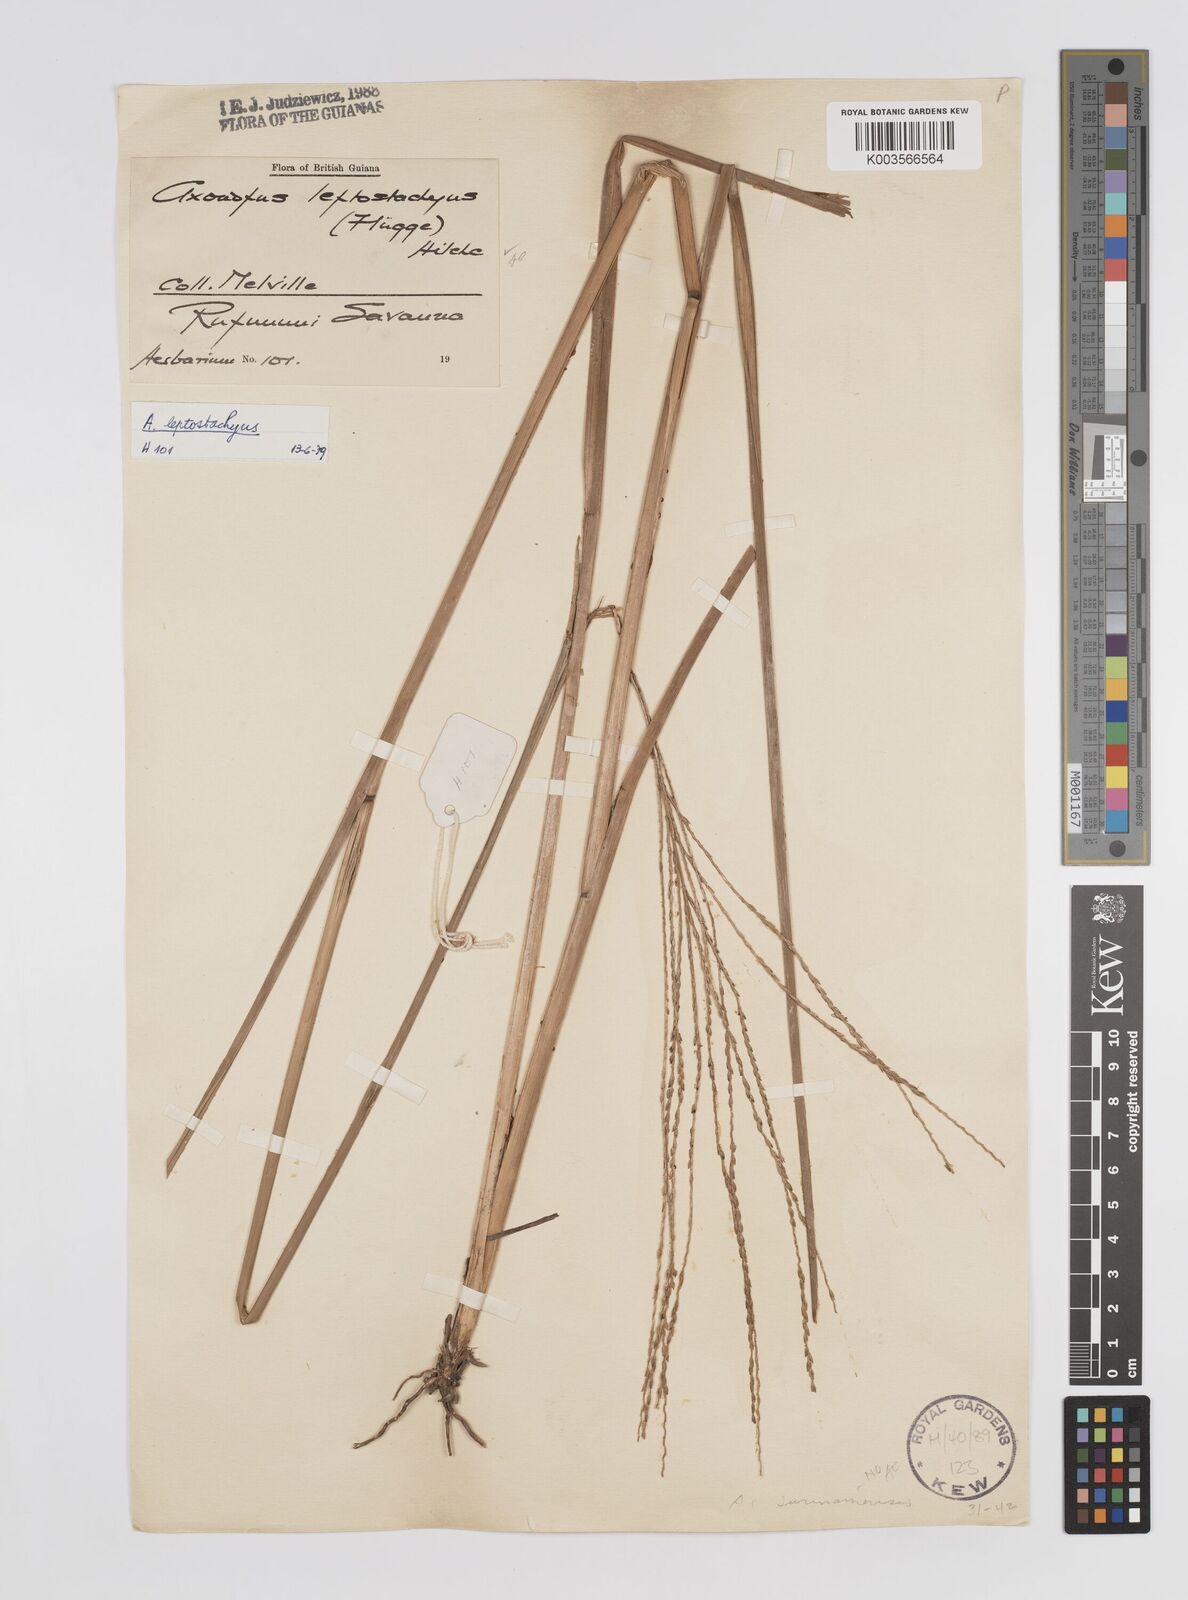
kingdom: Plantae
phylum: Tracheophyta
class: Liliopsida
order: Poales
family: Poaceae
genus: Axonopus
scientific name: Axonopus leptostachyus
